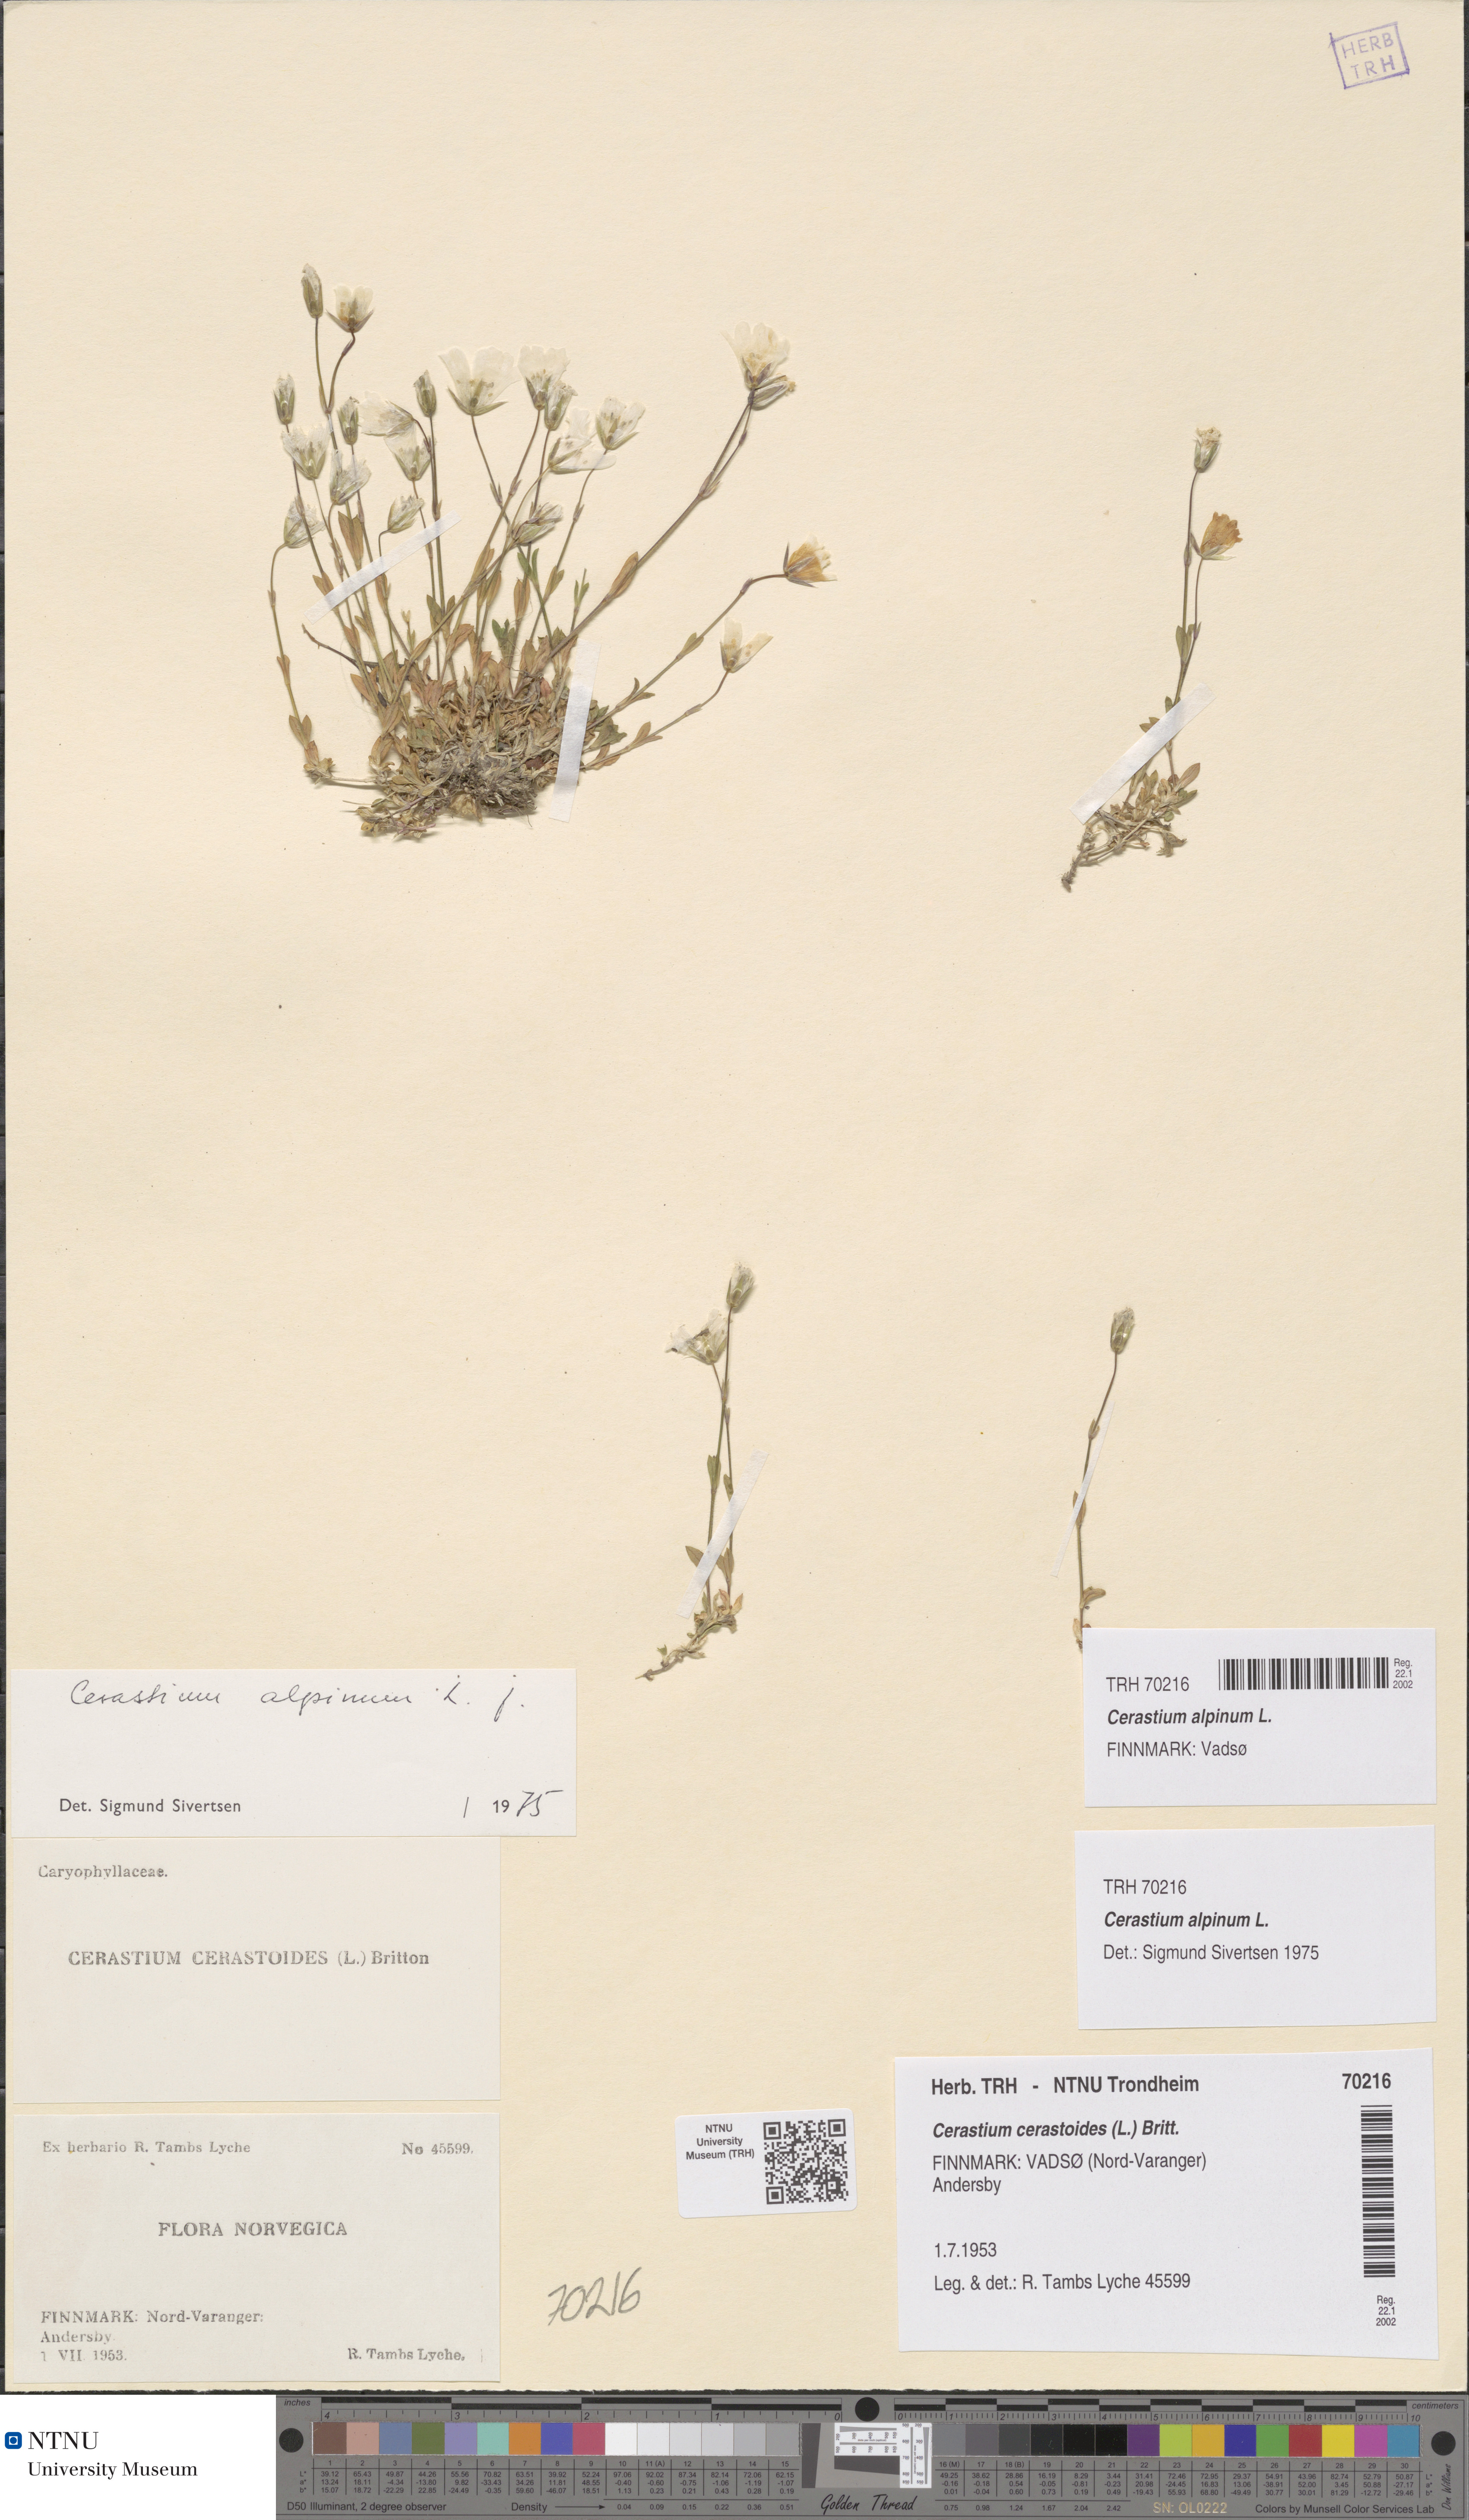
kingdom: Plantae
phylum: Tracheophyta
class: Magnoliopsida
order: Caryophyllales
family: Caryophyllaceae
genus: Cerastium
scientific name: Cerastium alpinum
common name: Alpine mouse-ear
